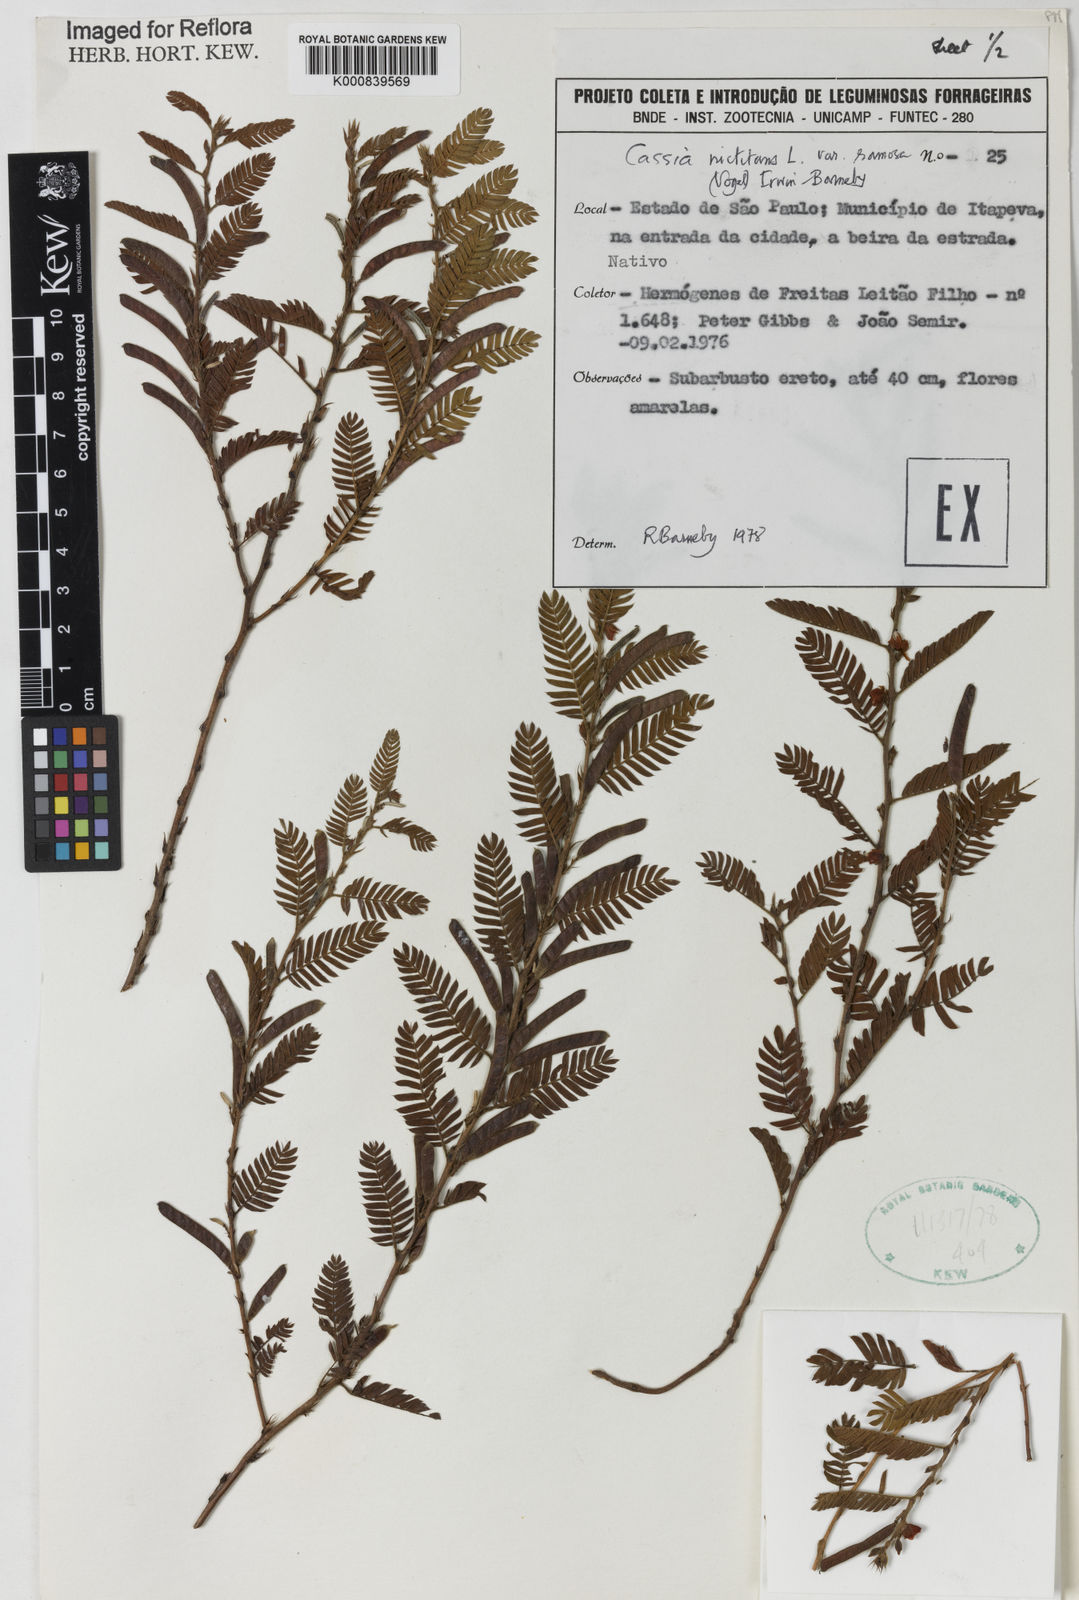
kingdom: Plantae
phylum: Tracheophyta
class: Magnoliopsida
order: Fabales
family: Fabaceae
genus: Chamaecrista
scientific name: Chamaecrista nictitans
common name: Sensitive cassia
